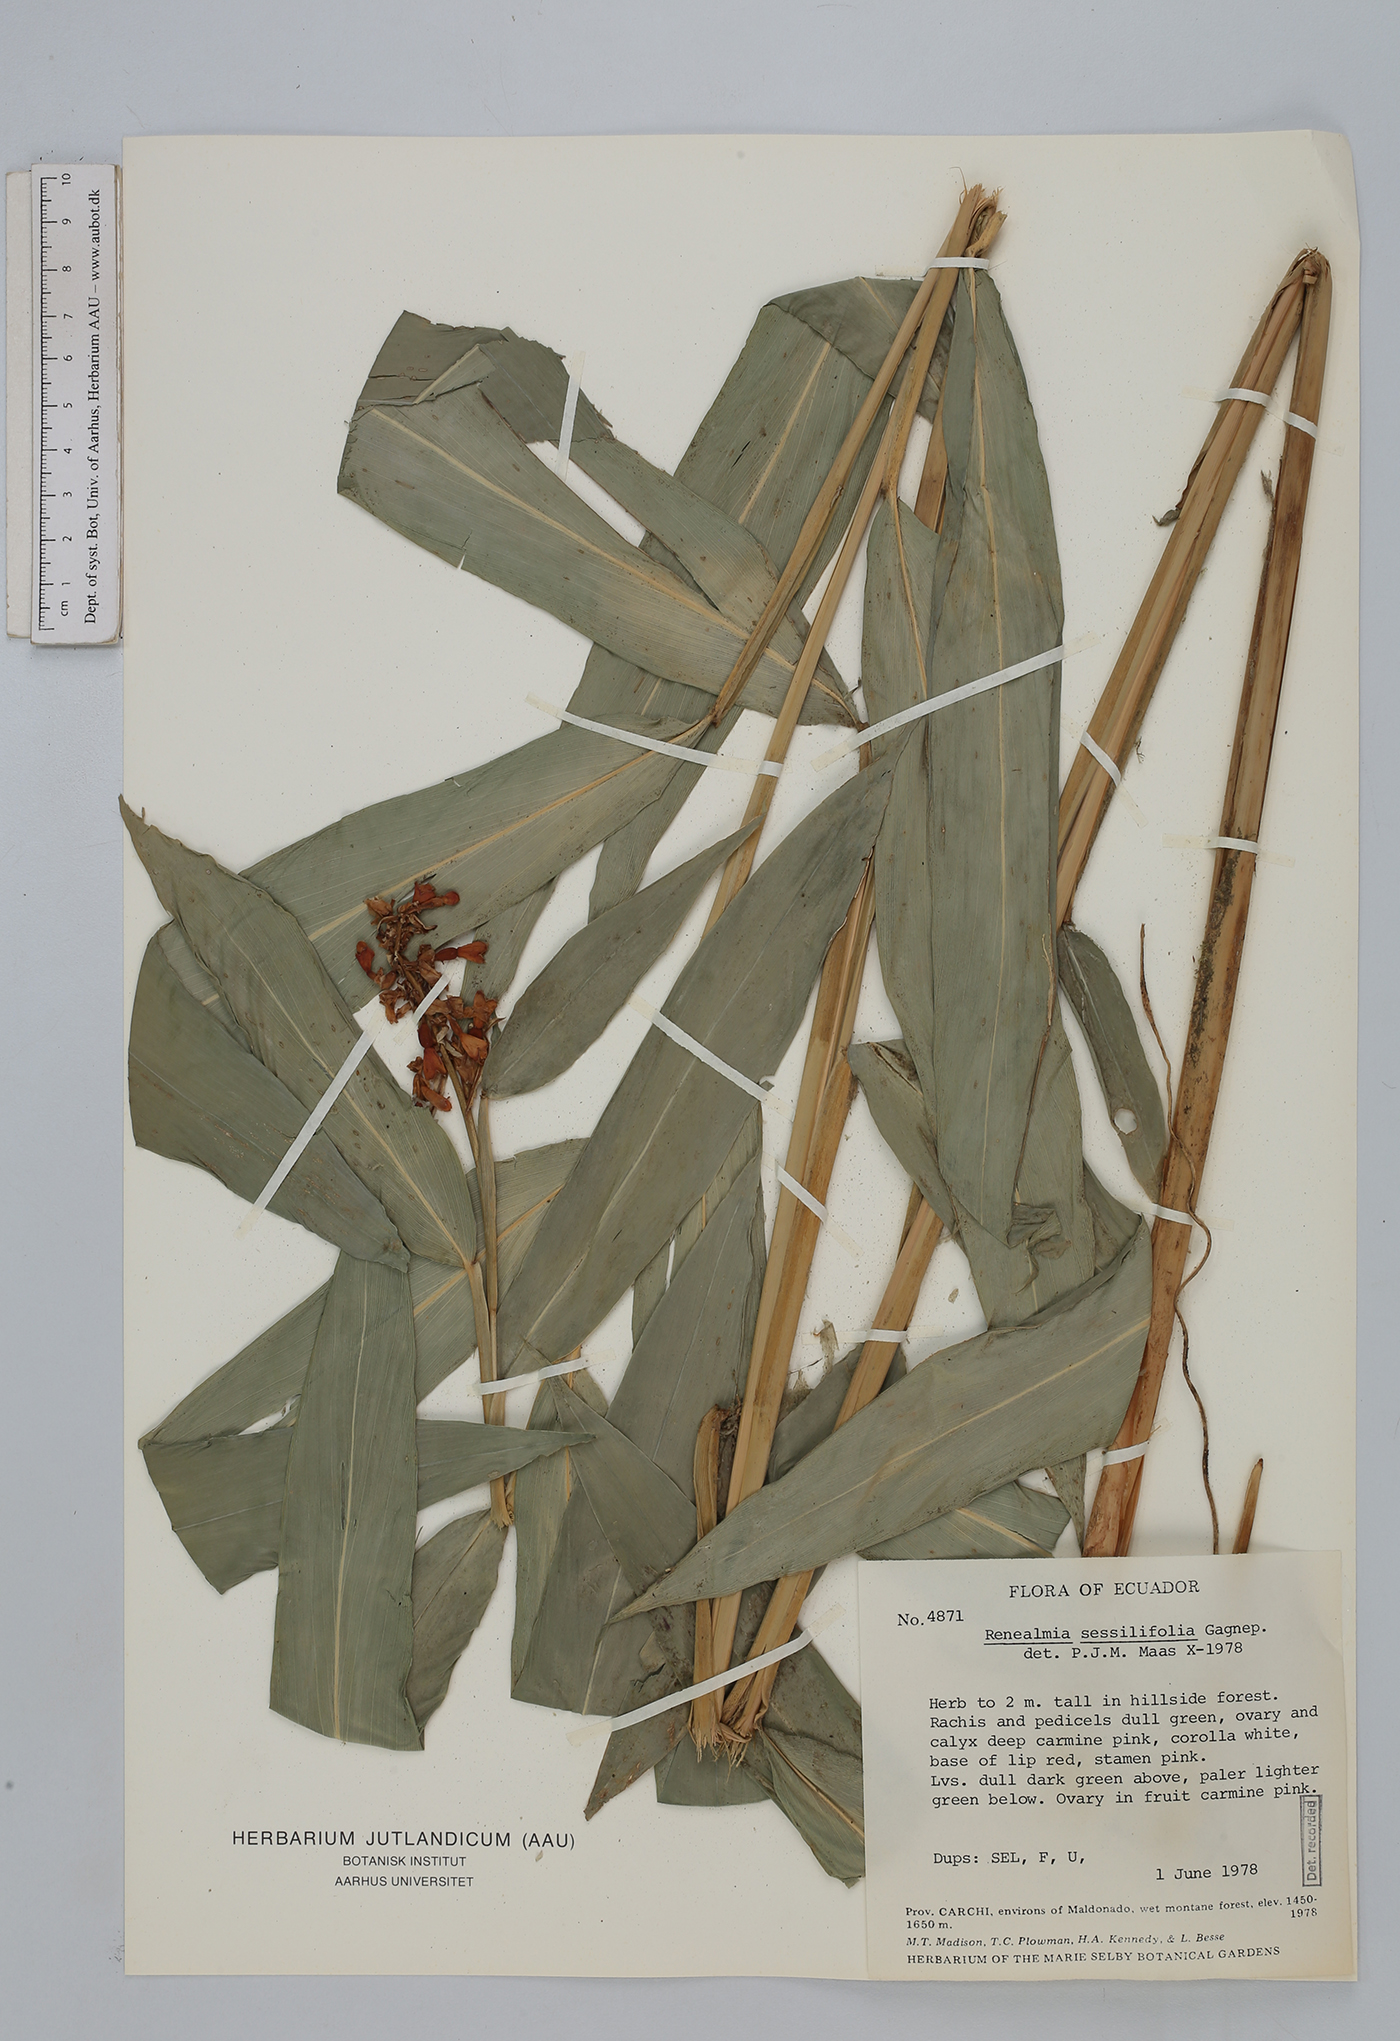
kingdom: Plantae
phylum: Tracheophyta
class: Liliopsida
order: Zingiberales
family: Zingiberaceae
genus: Renealmia
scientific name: Renealmia sessilifolia
